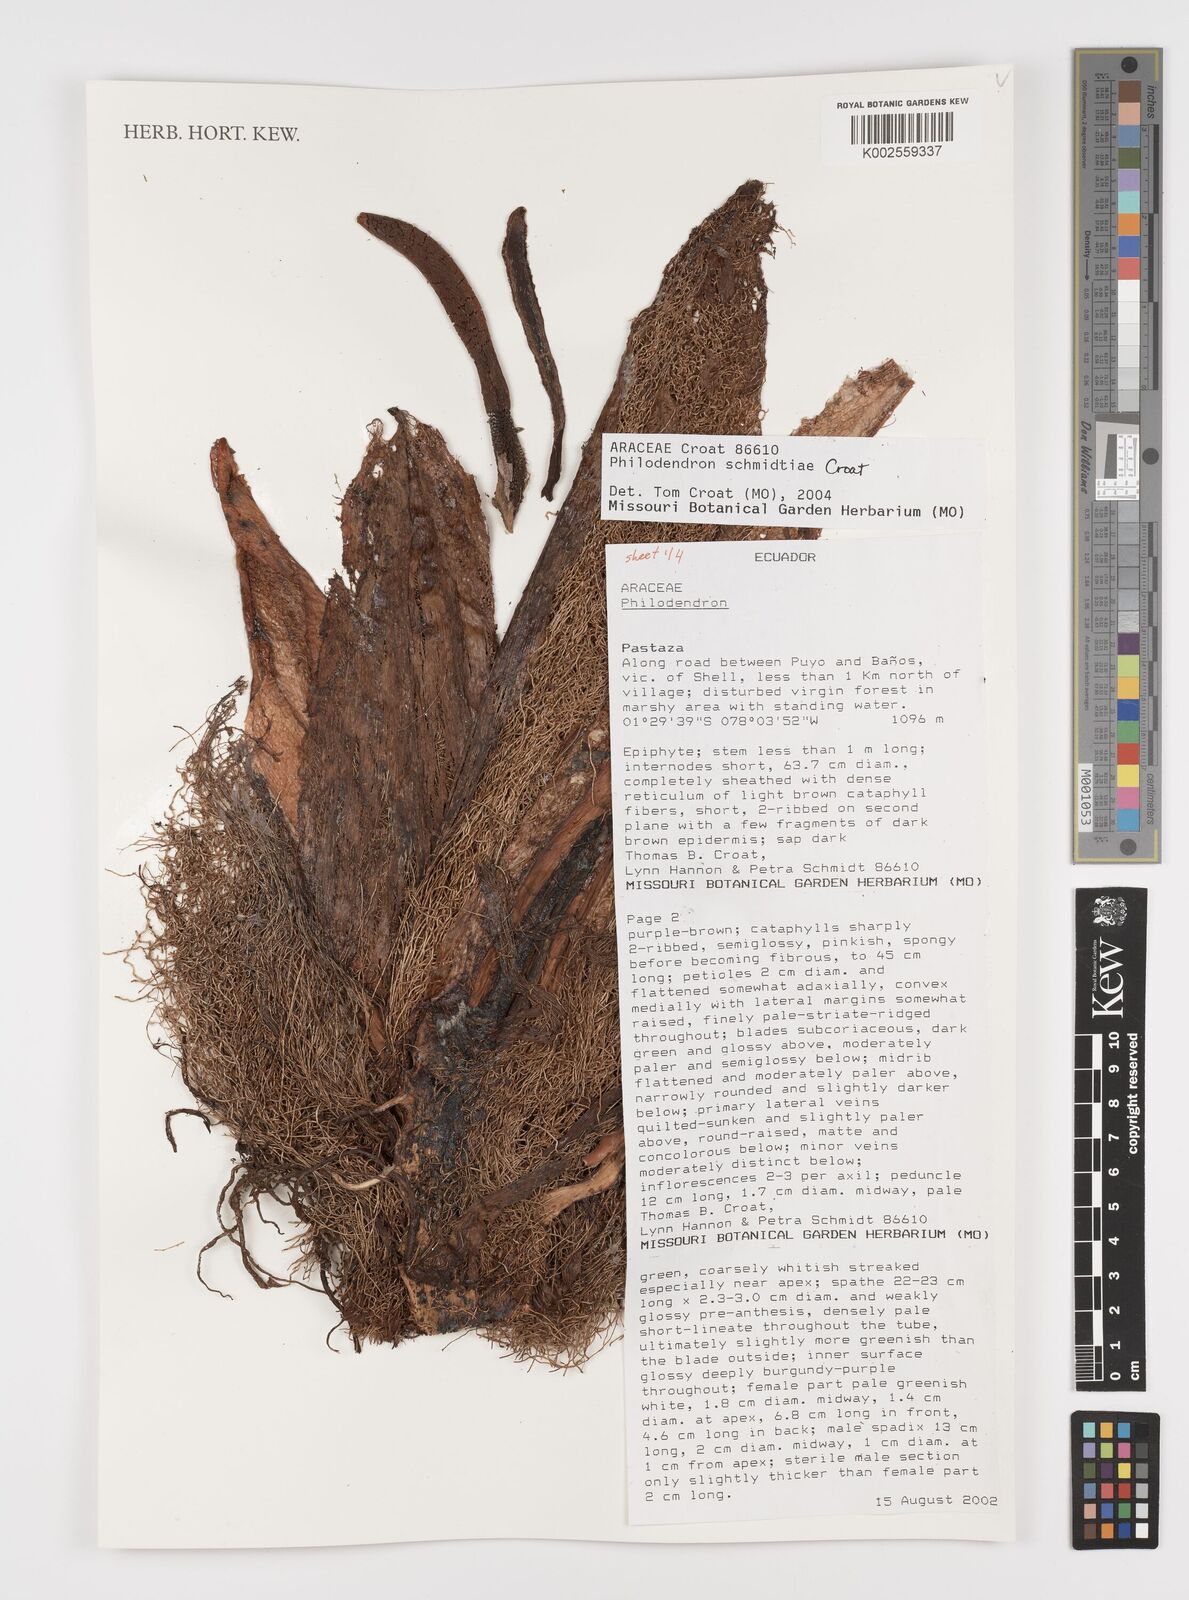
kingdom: Plantae
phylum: Tracheophyta
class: Liliopsida
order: Alismatales
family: Araceae
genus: Philodendron
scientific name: Philodendron schmidtiae
